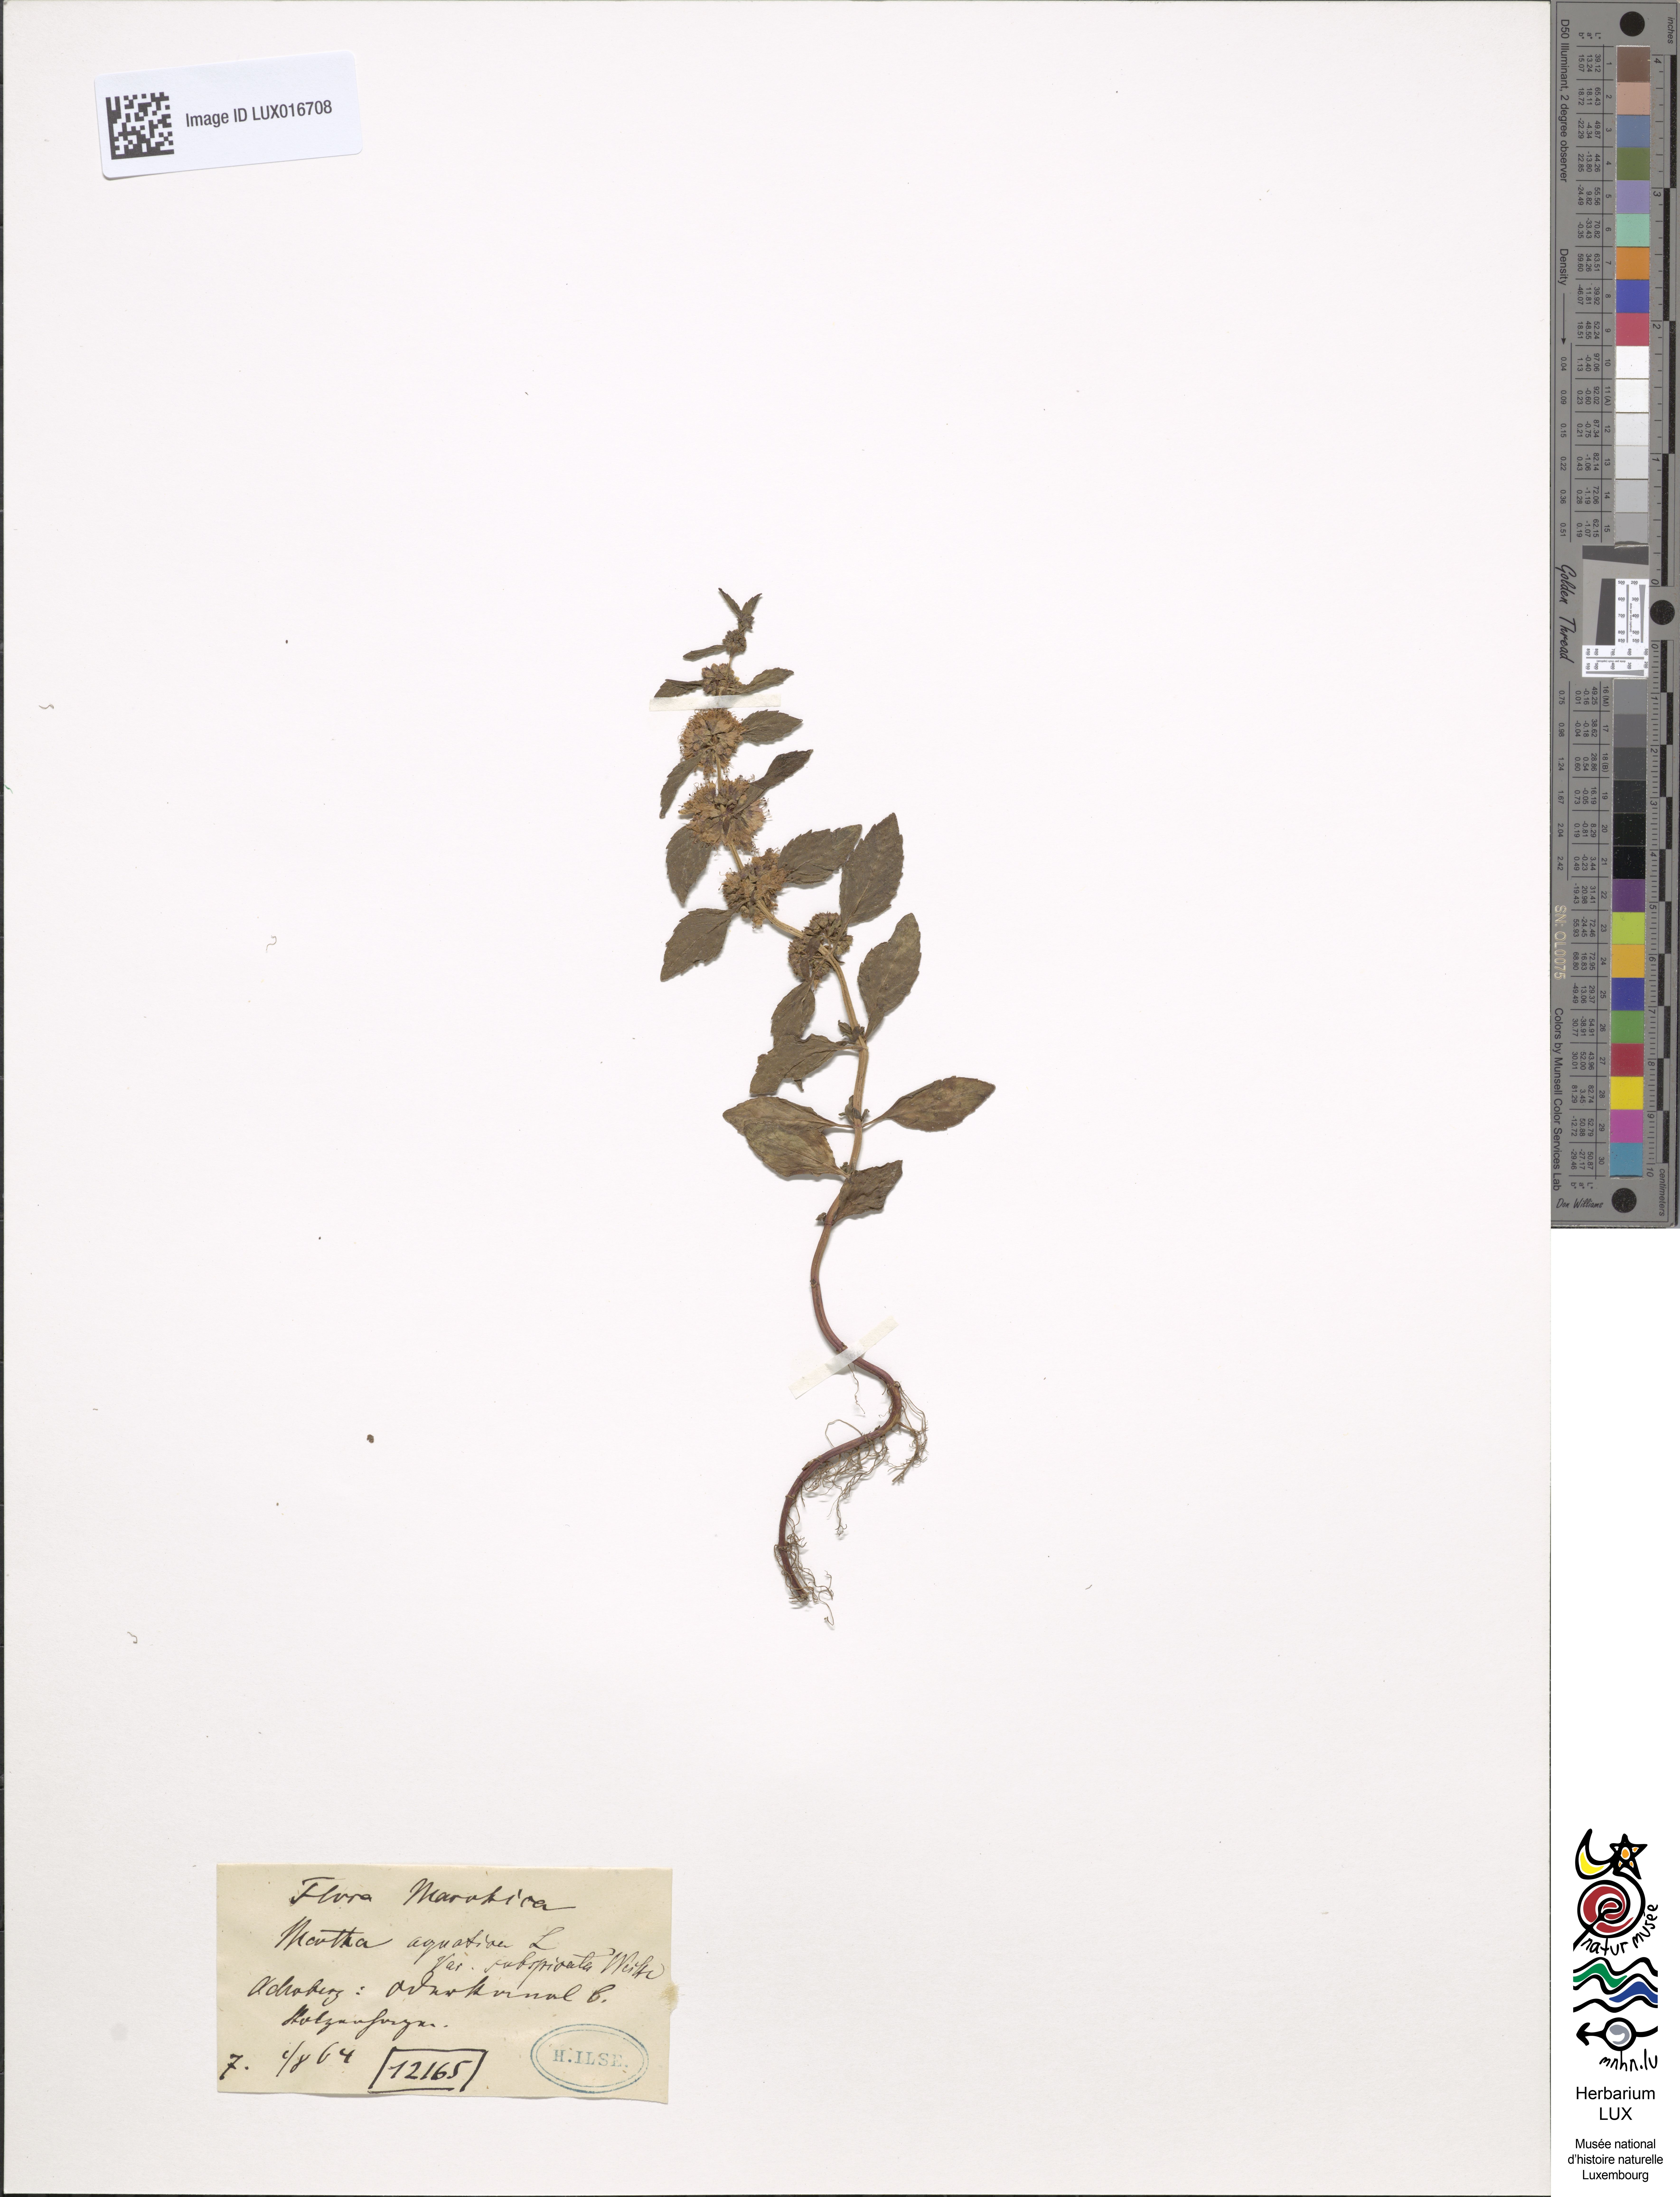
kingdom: Plantae
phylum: Tracheophyta
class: Magnoliopsida
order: Lamiales
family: Lamiaceae
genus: Mentha
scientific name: Mentha aquatica
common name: Water mint
